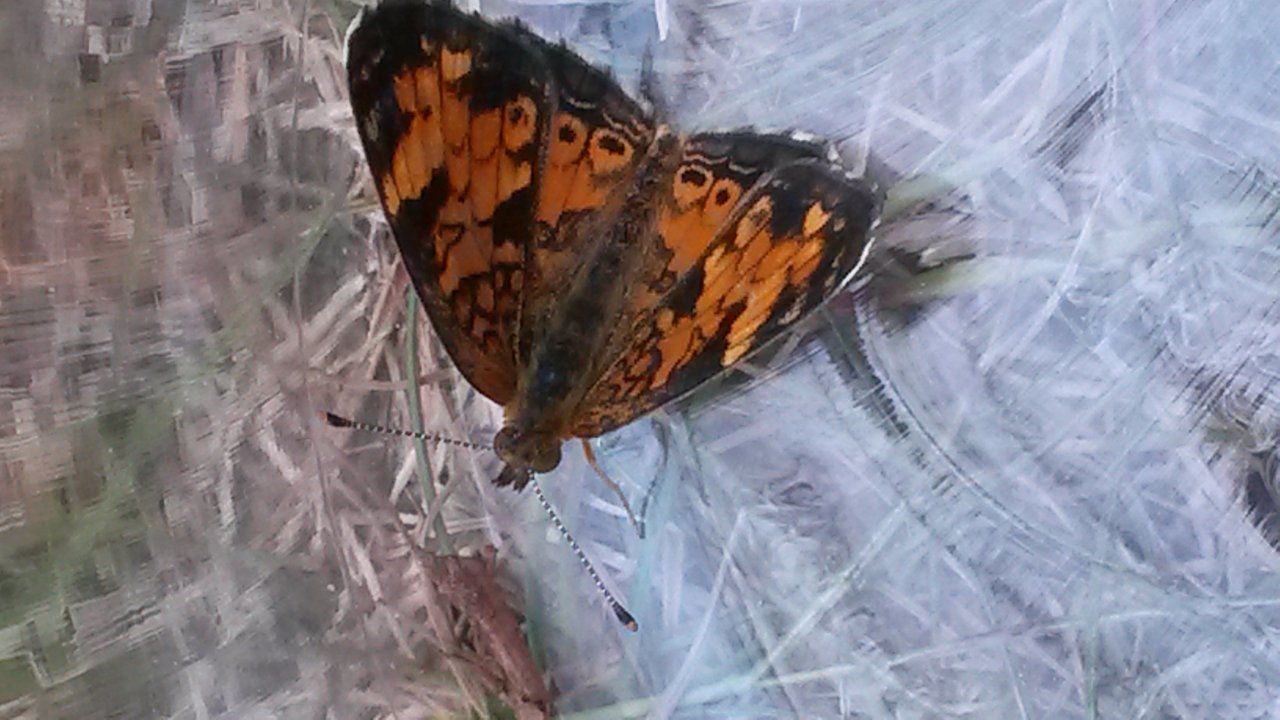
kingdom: Animalia
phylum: Arthropoda
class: Insecta
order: Lepidoptera
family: Nymphalidae
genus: Phyciodes
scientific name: Phyciodes tharos
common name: Northern Crescent
